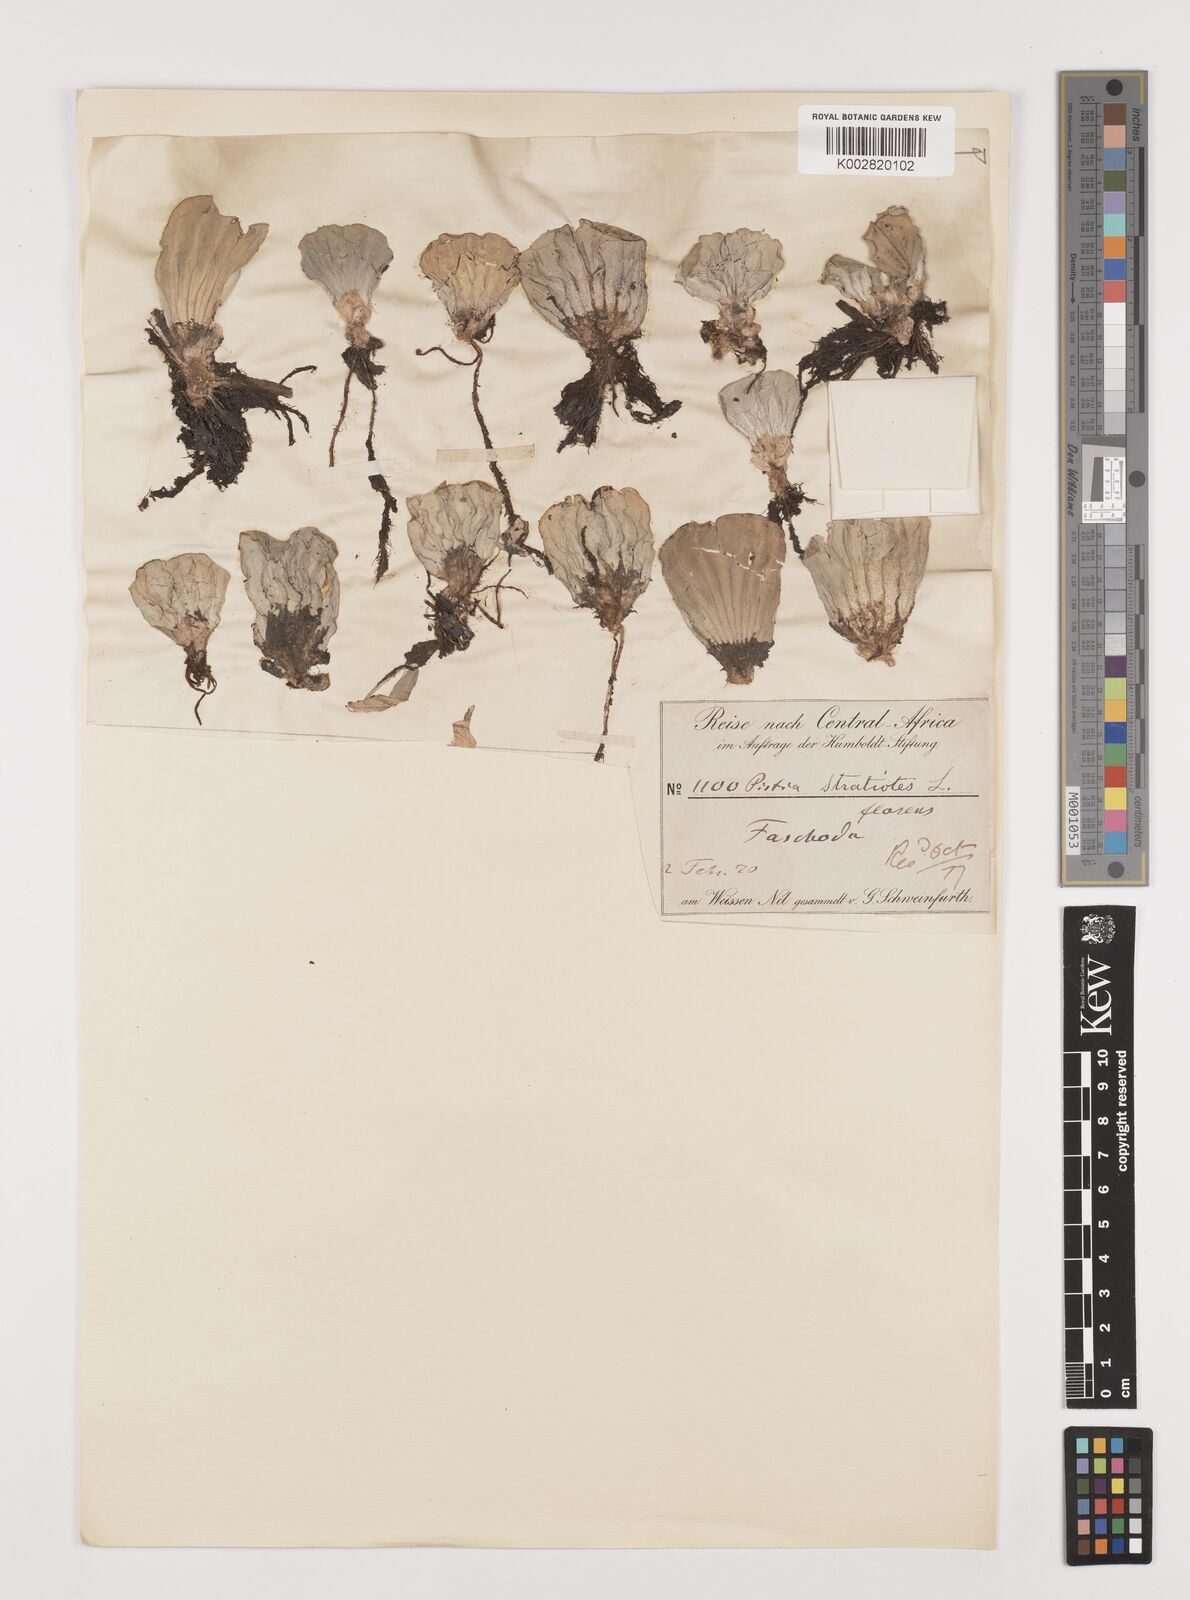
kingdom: Plantae
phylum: Tracheophyta
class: Liliopsida
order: Alismatales
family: Araceae
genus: Pistia
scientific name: Pistia stratiotes
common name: Water lettuce
